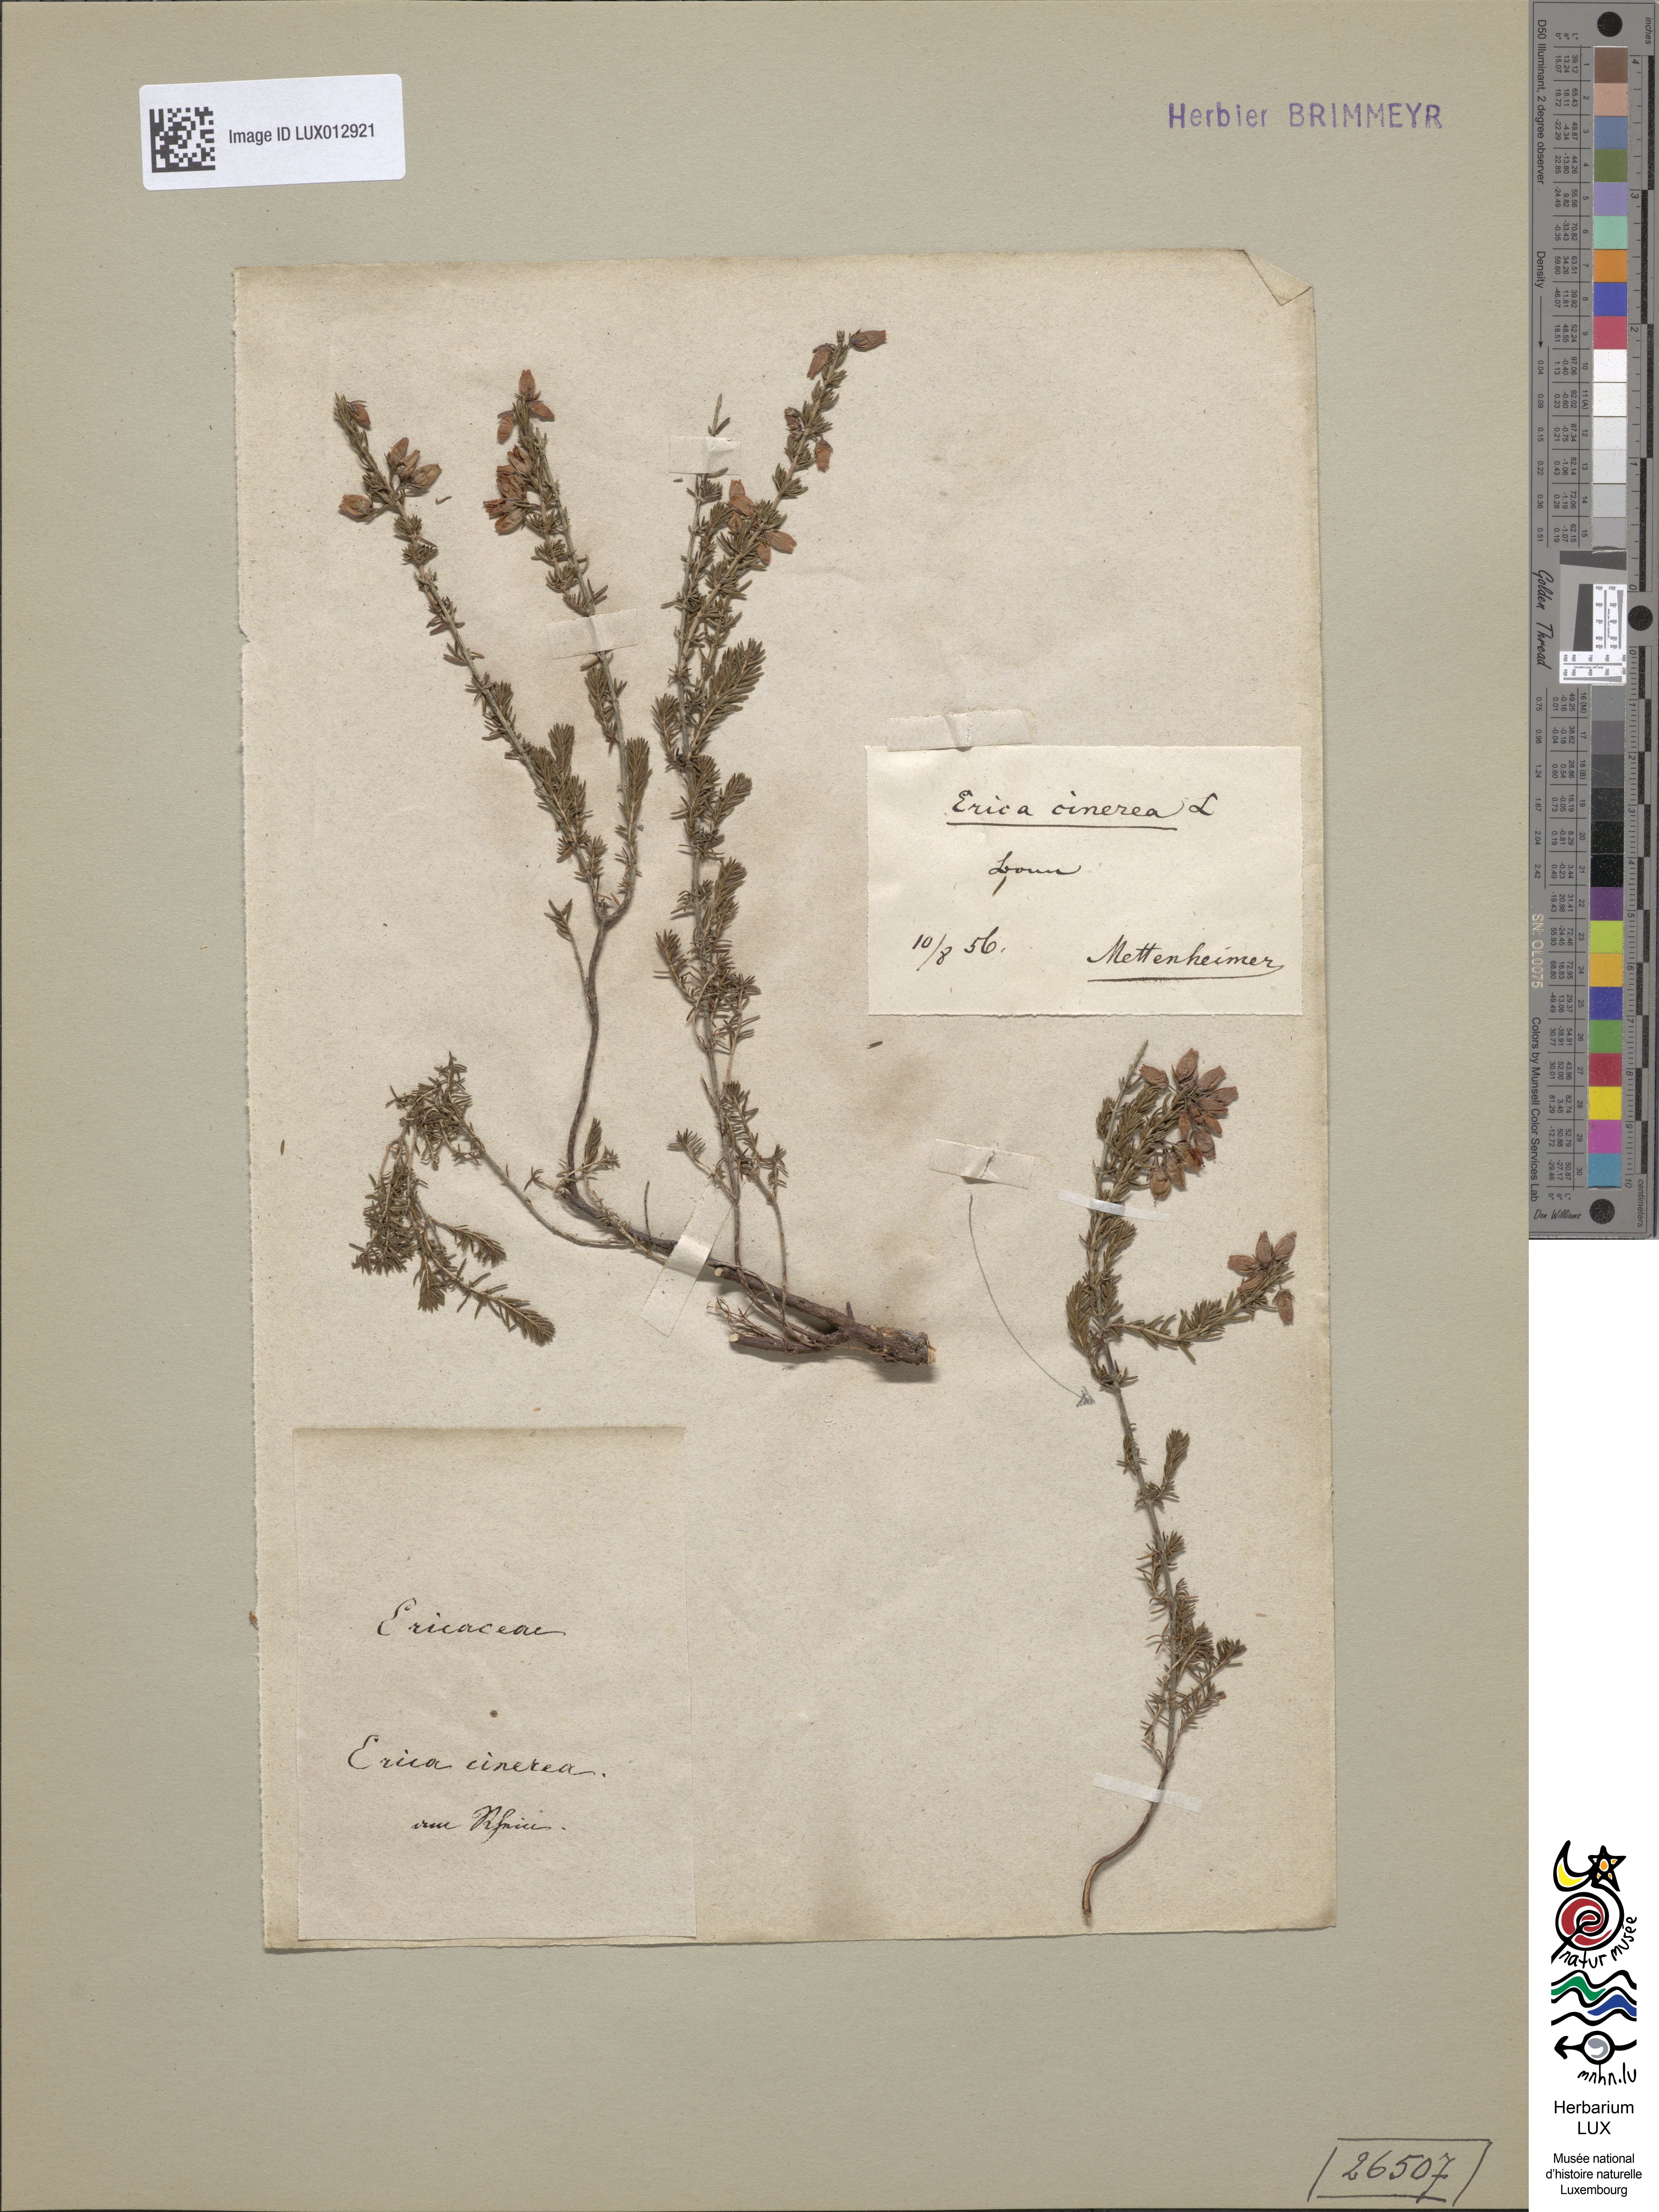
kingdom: Plantae
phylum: Tracheophyta
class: Magnoliopsida
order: Ericales
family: Ericaceae
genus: Erica
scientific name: Erica cinerea
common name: Bell heather
